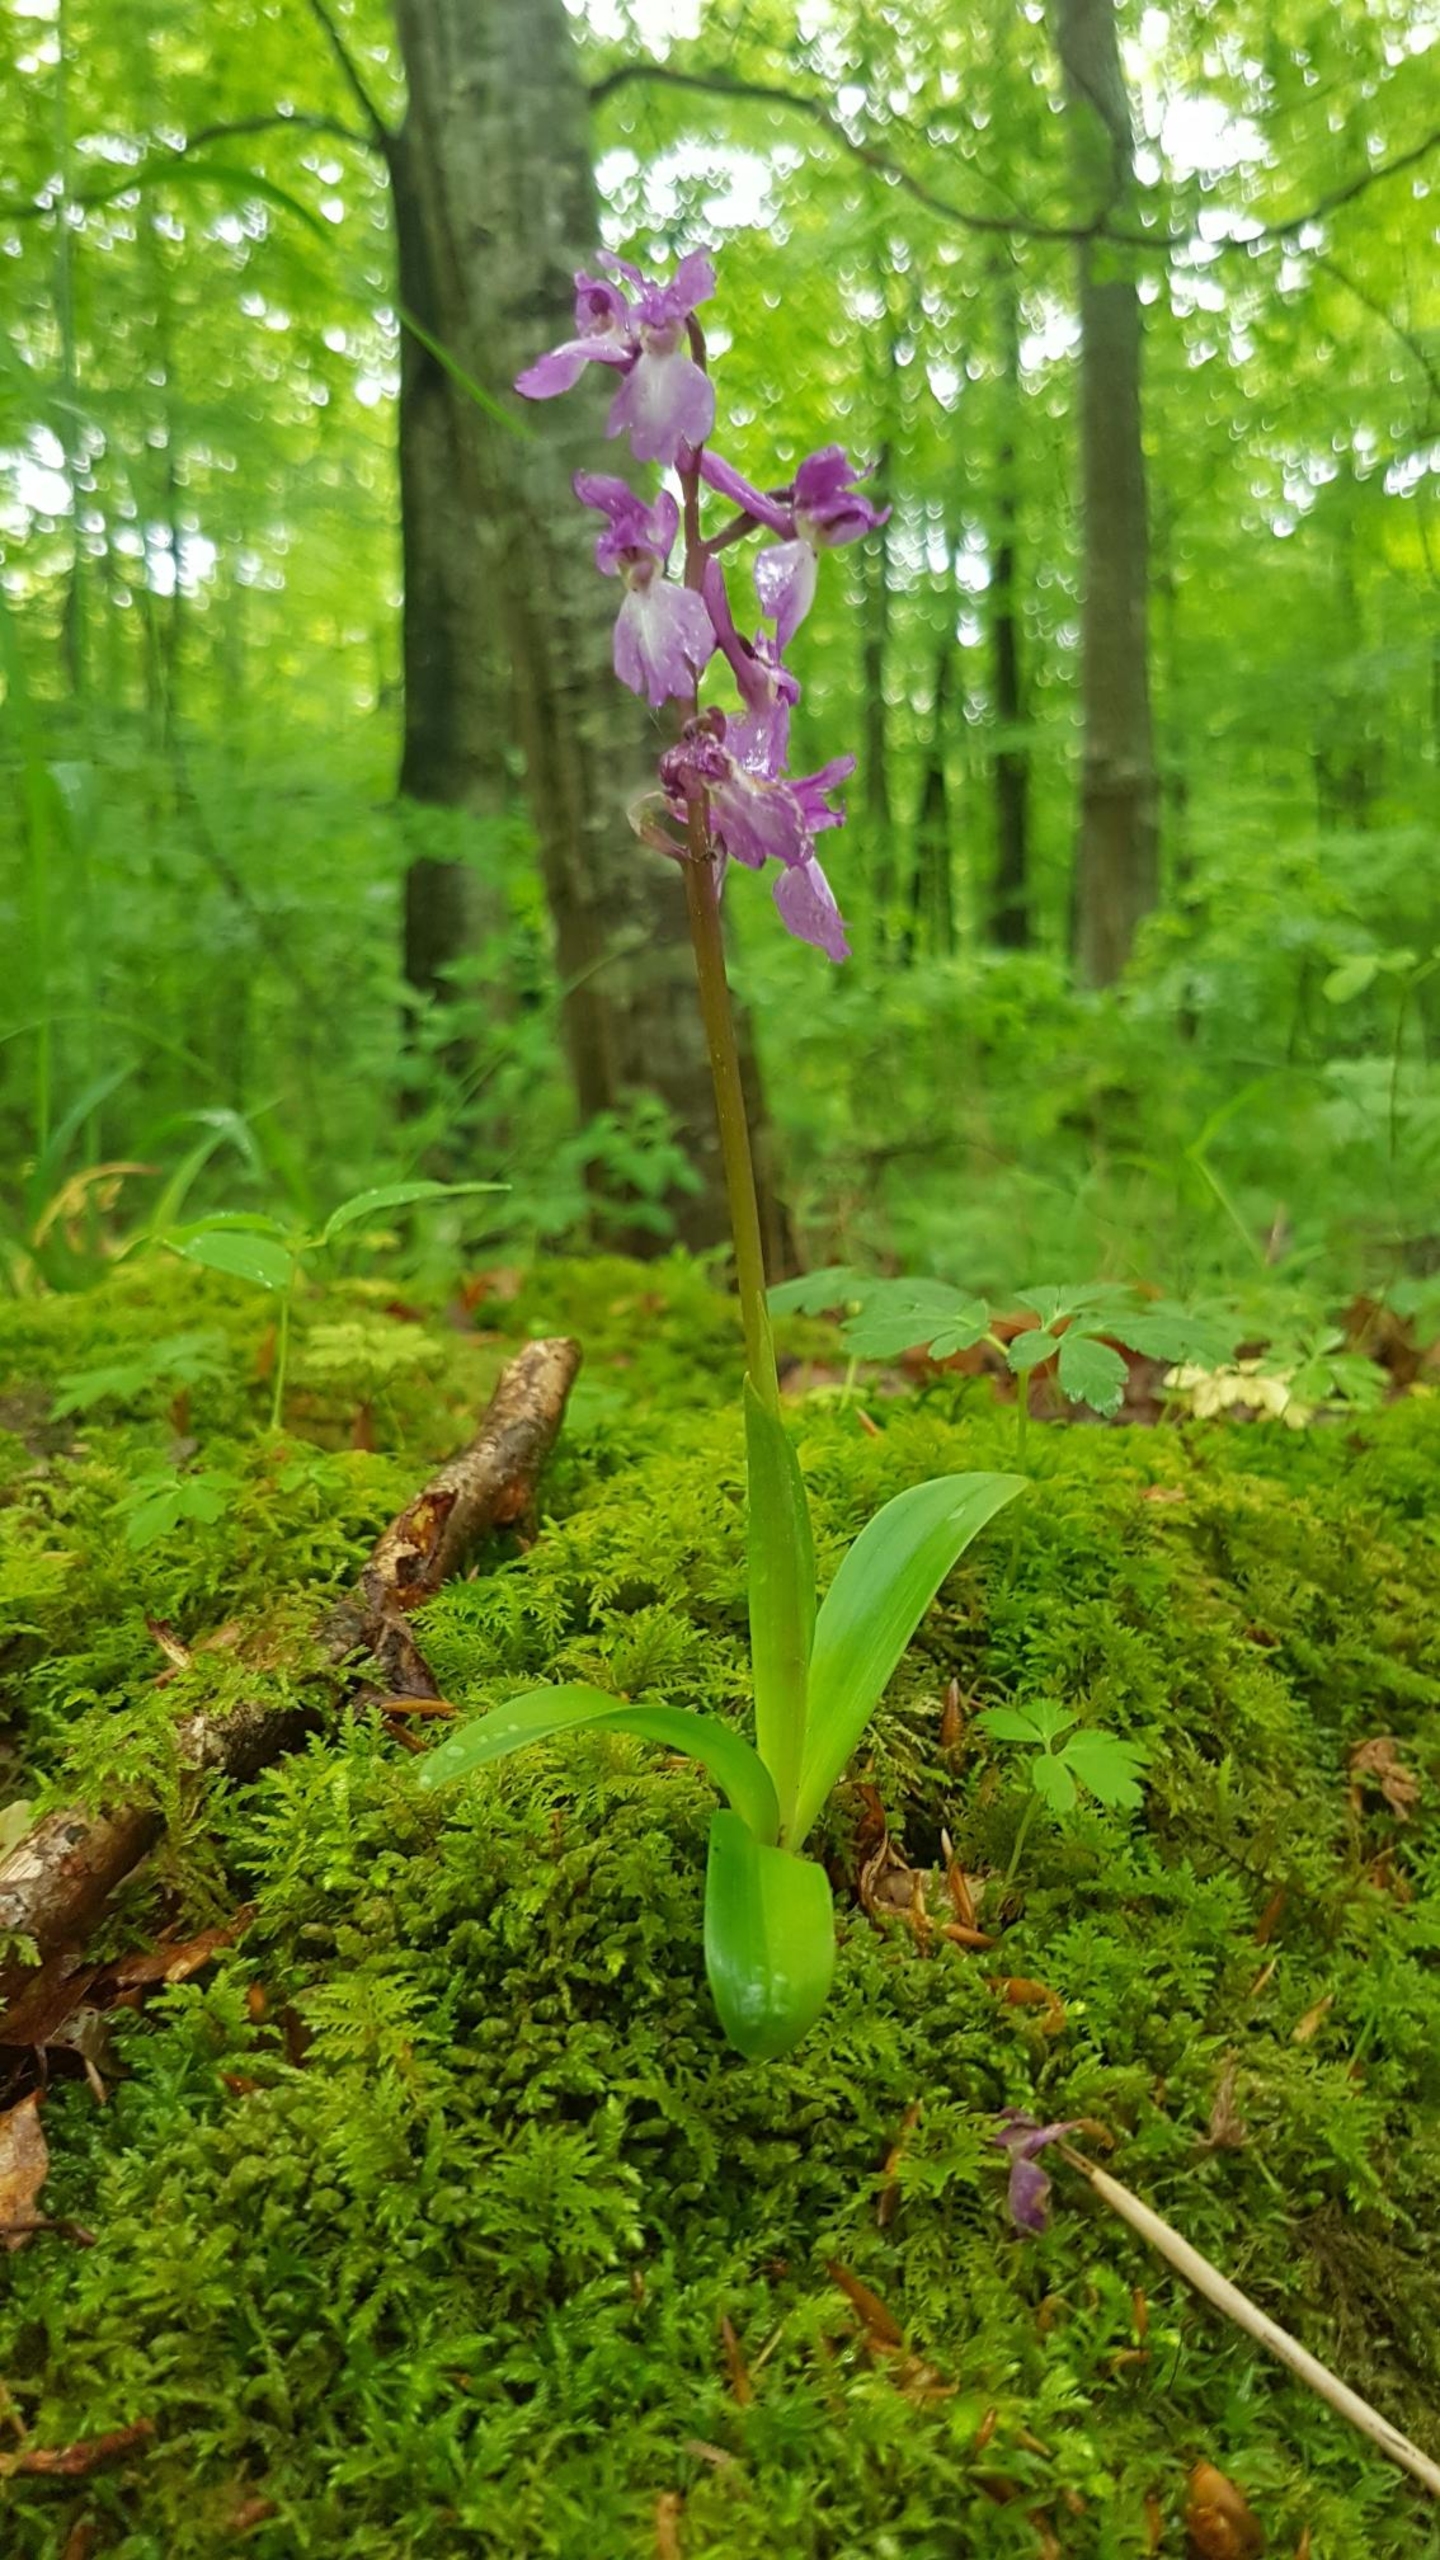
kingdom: Plantae
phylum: Tracheophyta
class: Liliopsida
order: Asparagales
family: Orchidaceae
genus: Orchis
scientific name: Orchis mascula
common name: Tyndakset gøgeurt
